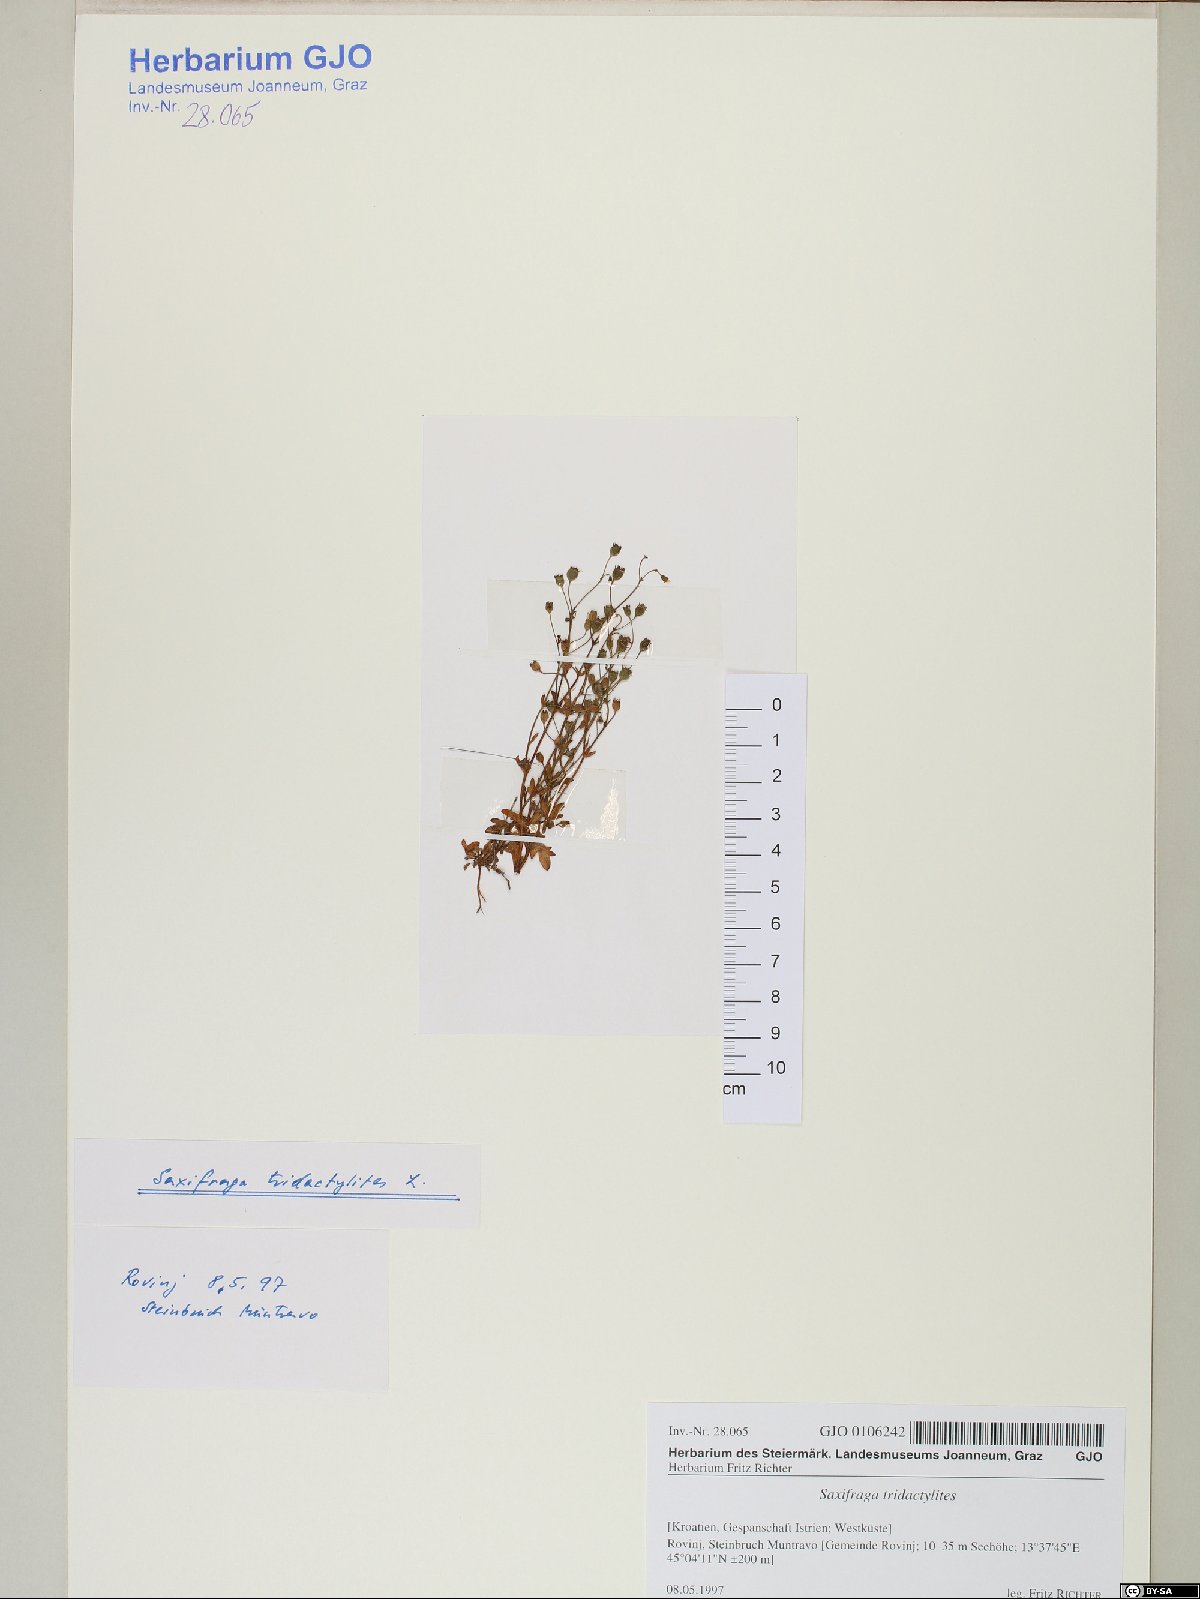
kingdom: Plantae
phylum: Tracheophyta
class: Magnoliopsida
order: Saxifragales
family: Saxifragaceae
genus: Saxifraga
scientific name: Saxifraga tridactylites
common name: Rue-leaved saxifrage
